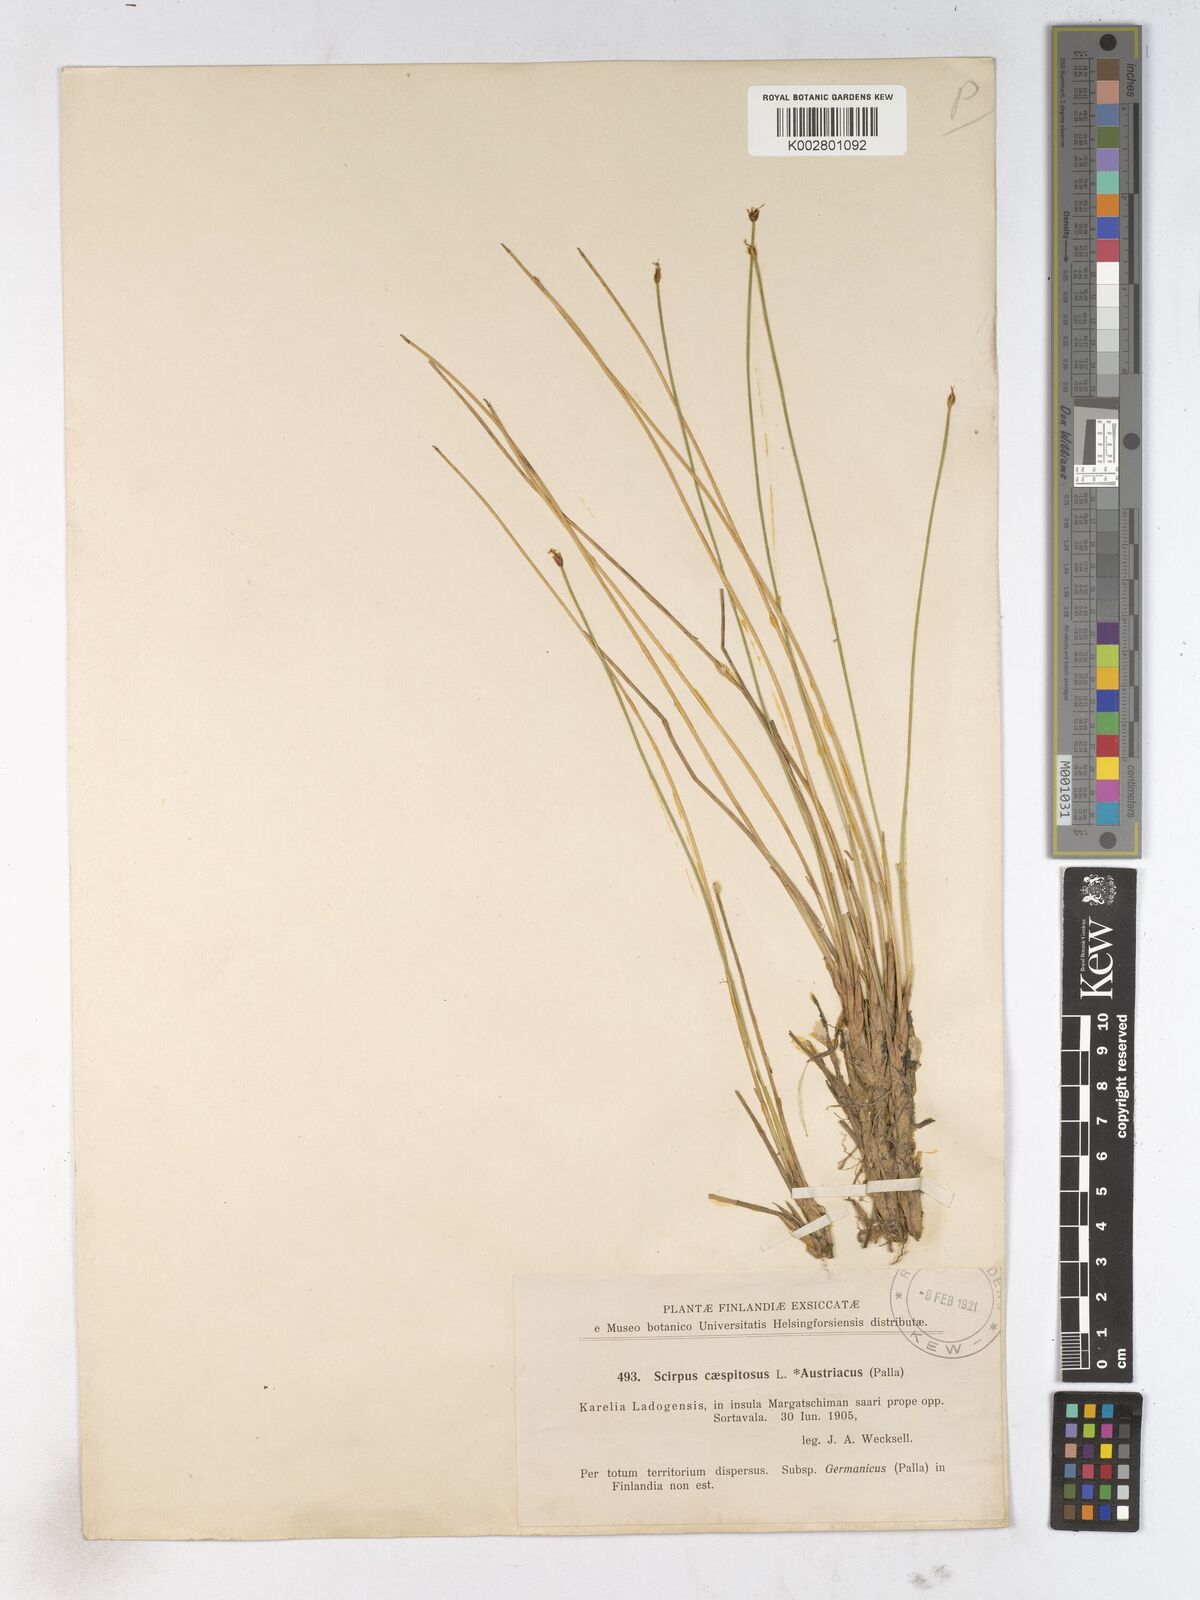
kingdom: Plantae
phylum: Tracheophyta
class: Liliopsida
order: Poales
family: Cyperaceae
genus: Trichophorum
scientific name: Trichophorum cespitosum
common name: Cespitose bulrush
